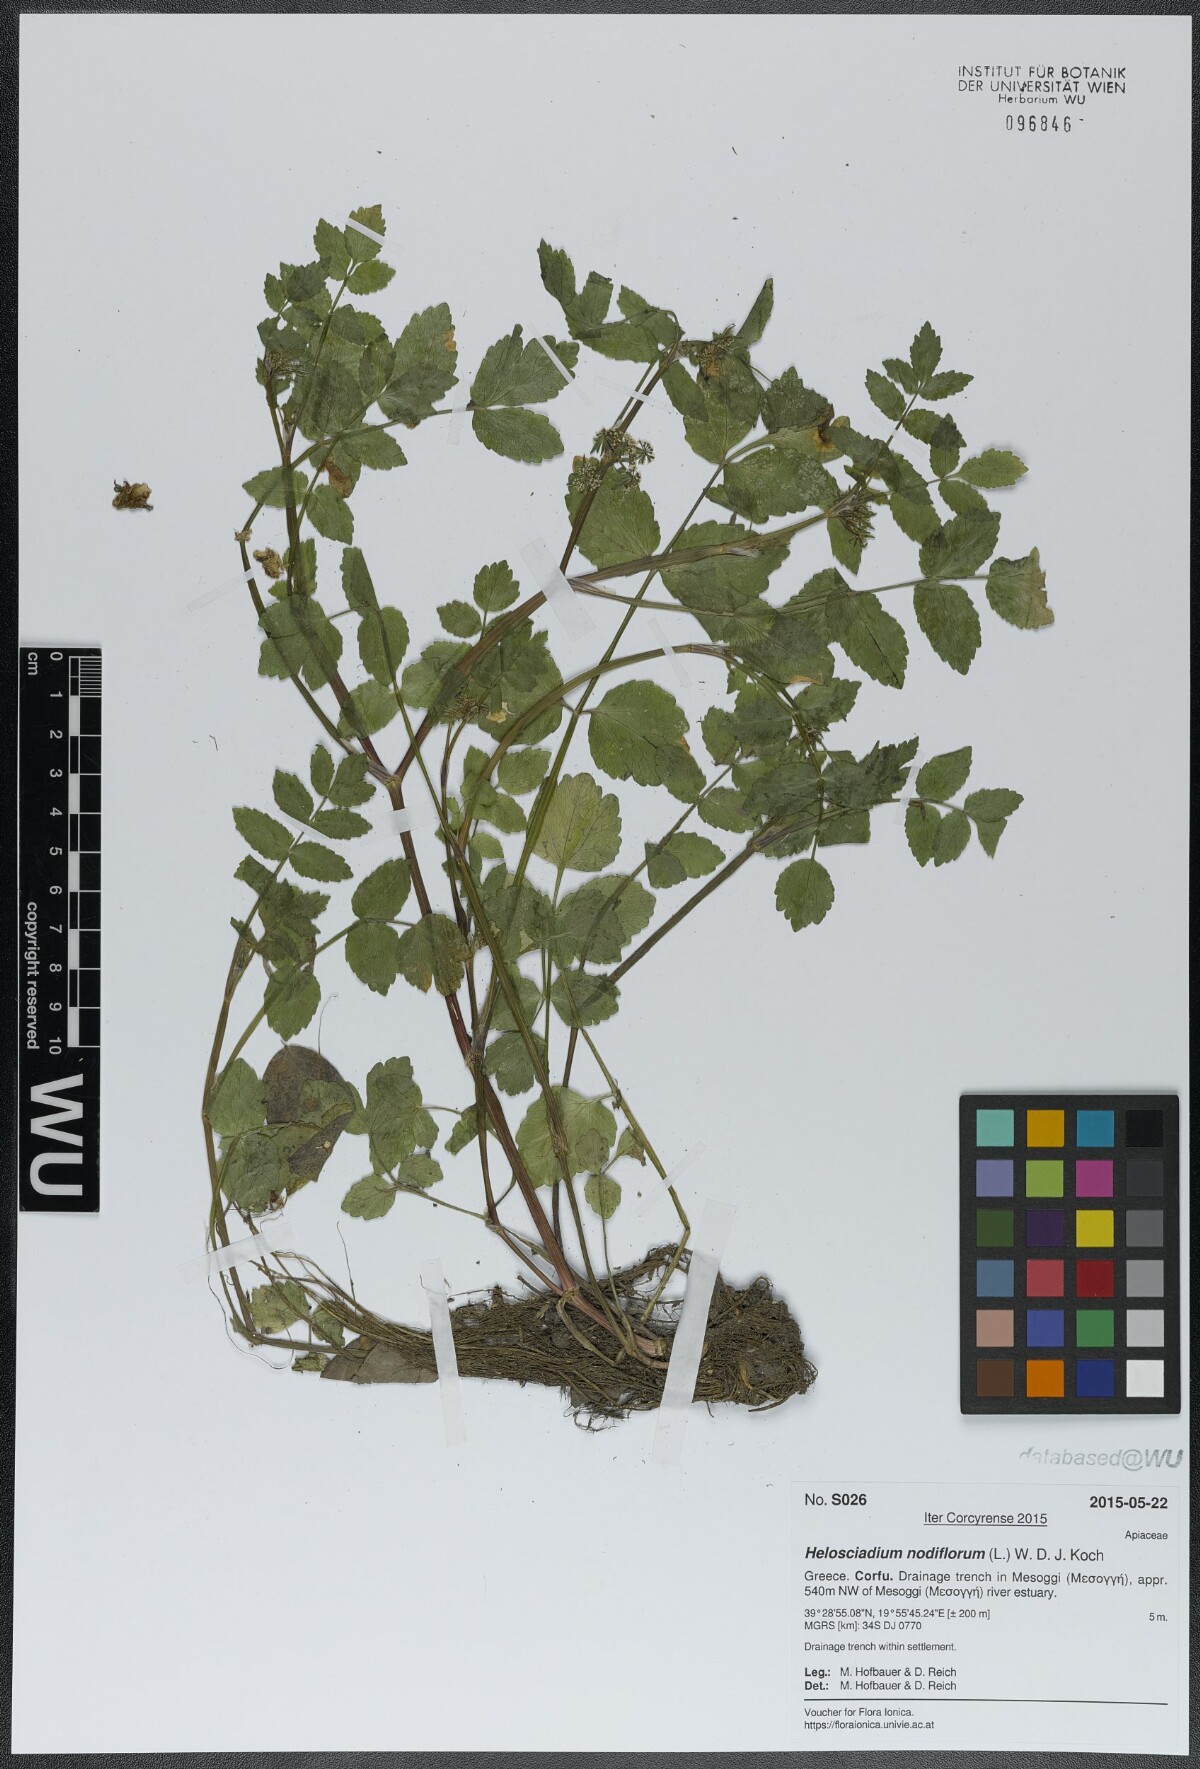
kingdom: Plantae
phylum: Tracheophyta
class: Magnoliopsida
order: Apiales
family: Apiaceae
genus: Helosciadium
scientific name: Helosciadium nodiflorum
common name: Fool's-watercress
